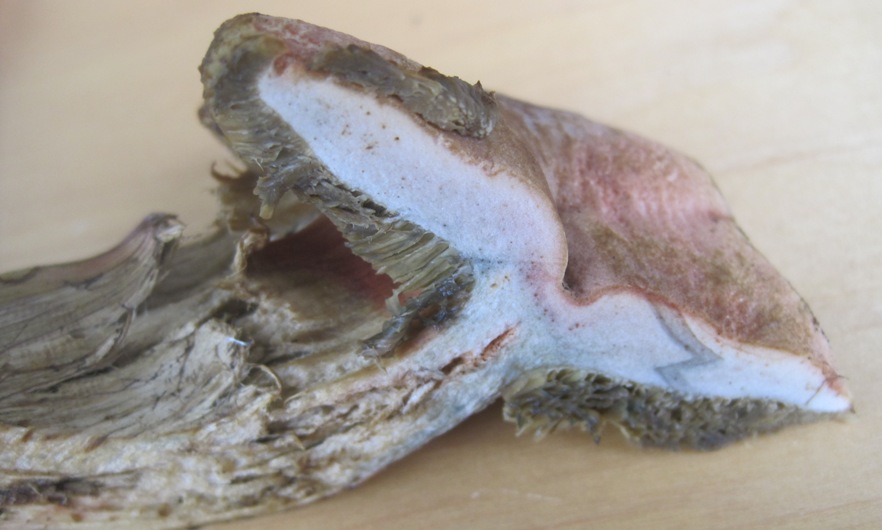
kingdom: Fungi
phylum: Basidiomycota
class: Agaricomycetes
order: Boletales
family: Boletaceae
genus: Hortiboletus
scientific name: Hortiboletus bubalinus
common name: aurora-rørhat
